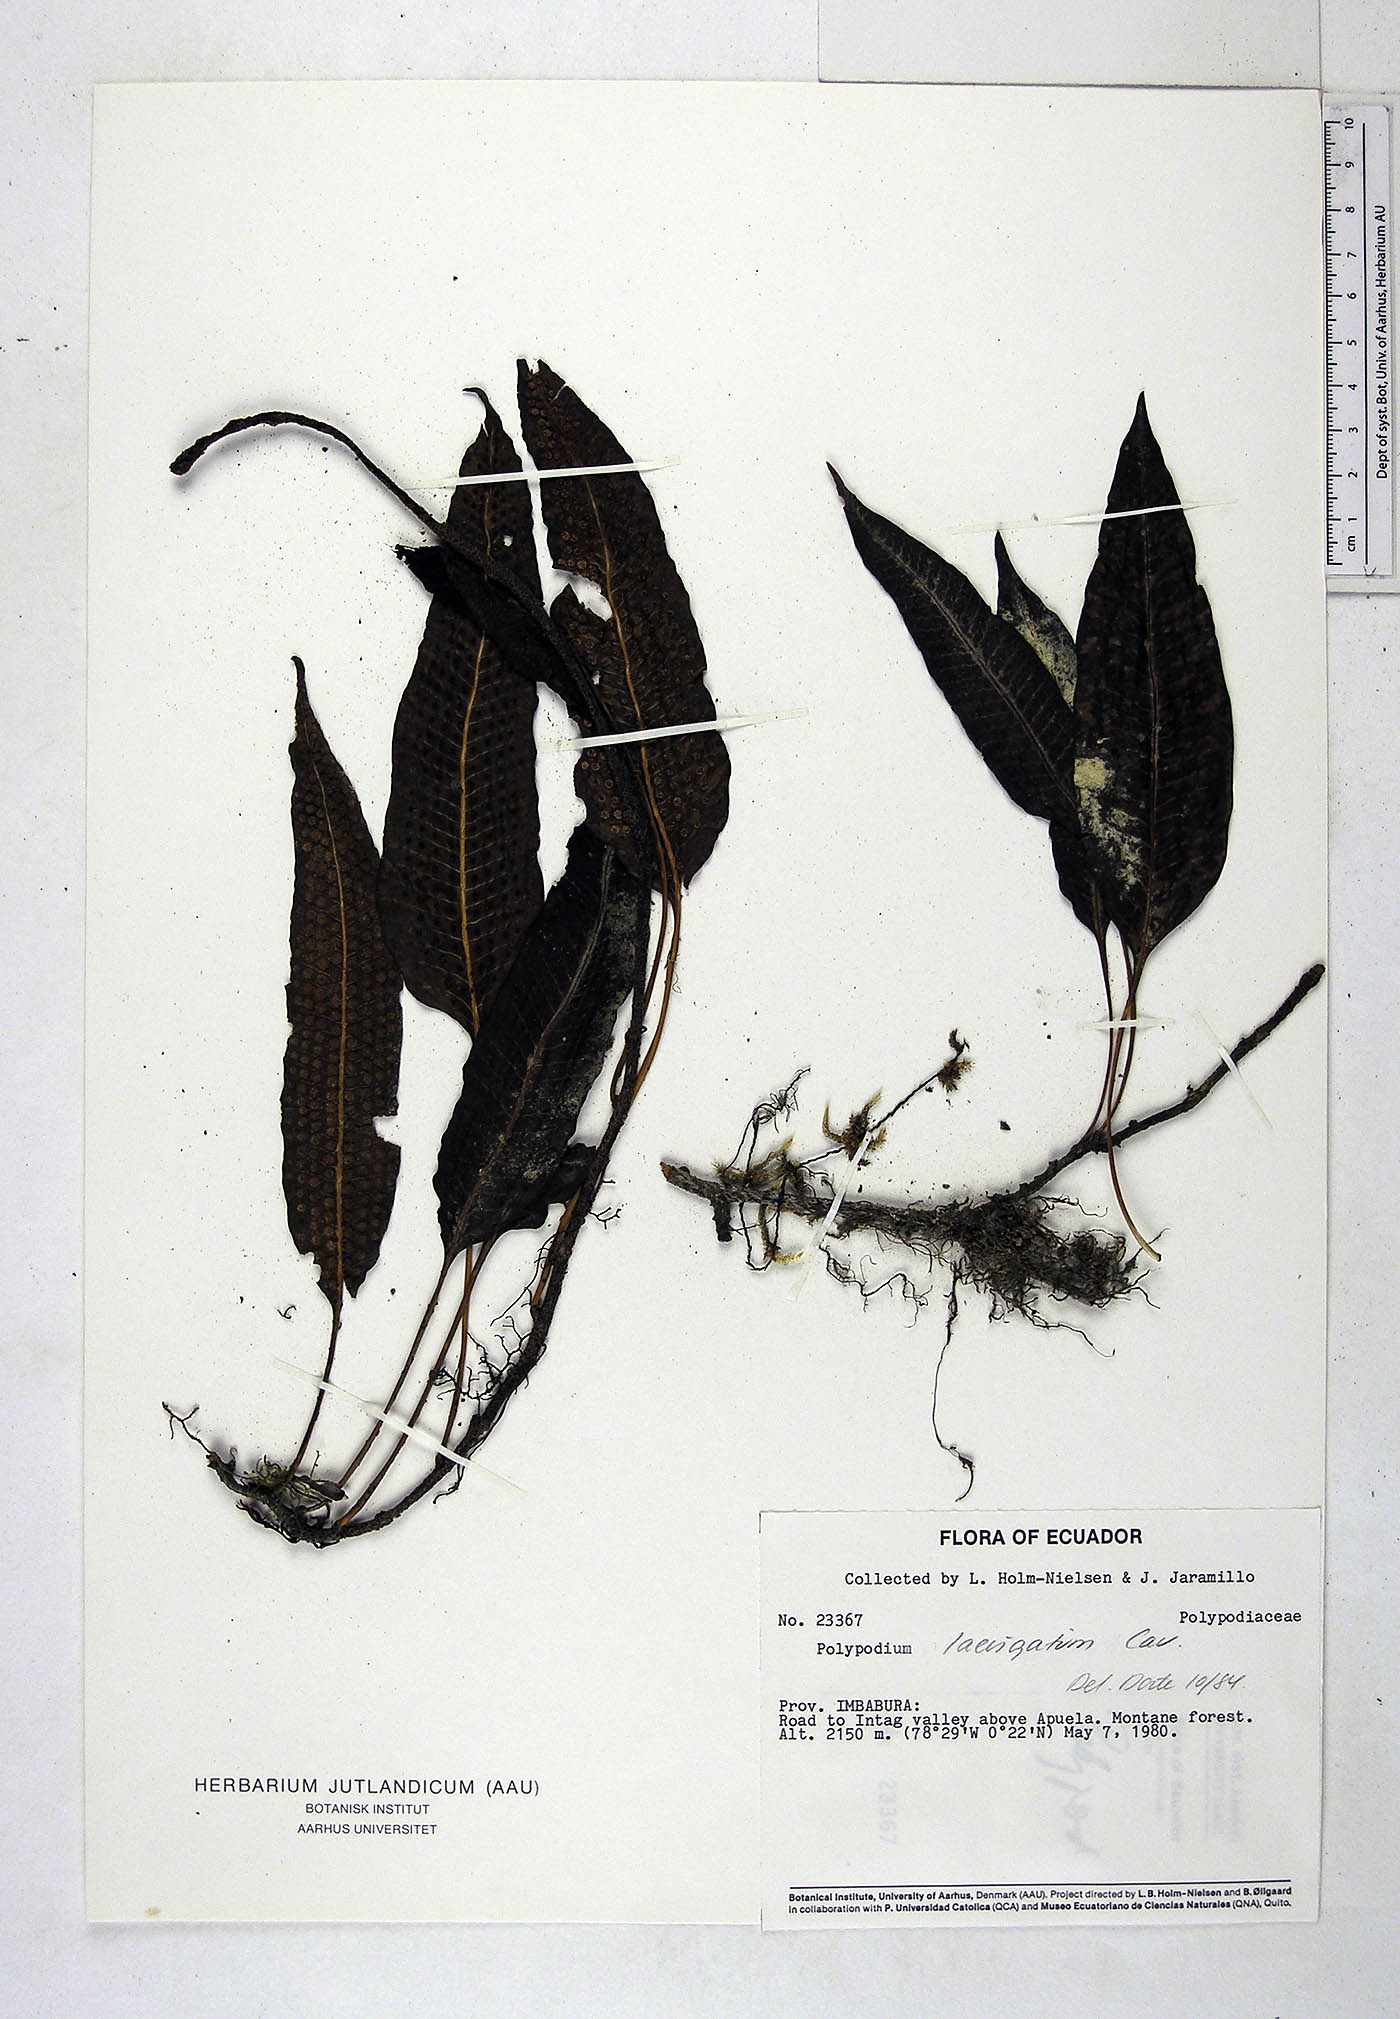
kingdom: Plantae
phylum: Tracheophyta
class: Polypodiopsida
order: Polypodiales
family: Polypodiaceae
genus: Serpocaulon
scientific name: Serpocaulon laevigatum
